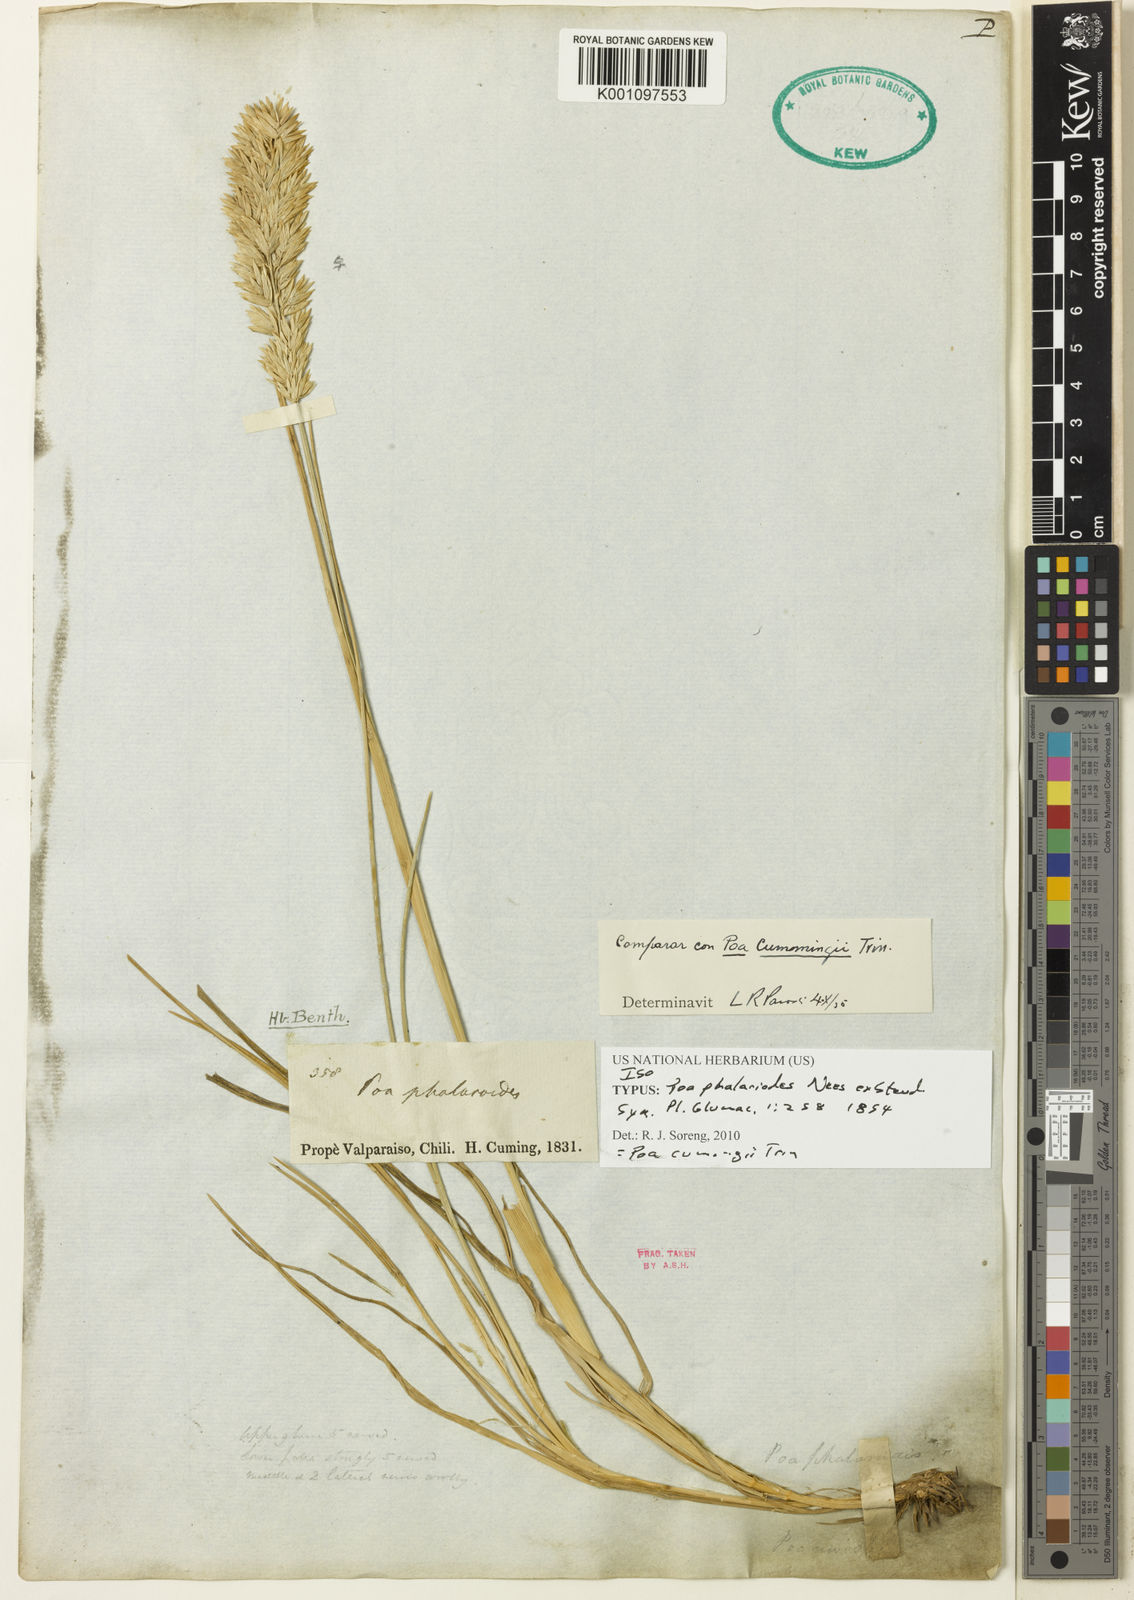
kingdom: Plantae
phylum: Tracheophyta
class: Liliopsida
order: Poales
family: Poaceae
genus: Poa
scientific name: Poa cumingii
